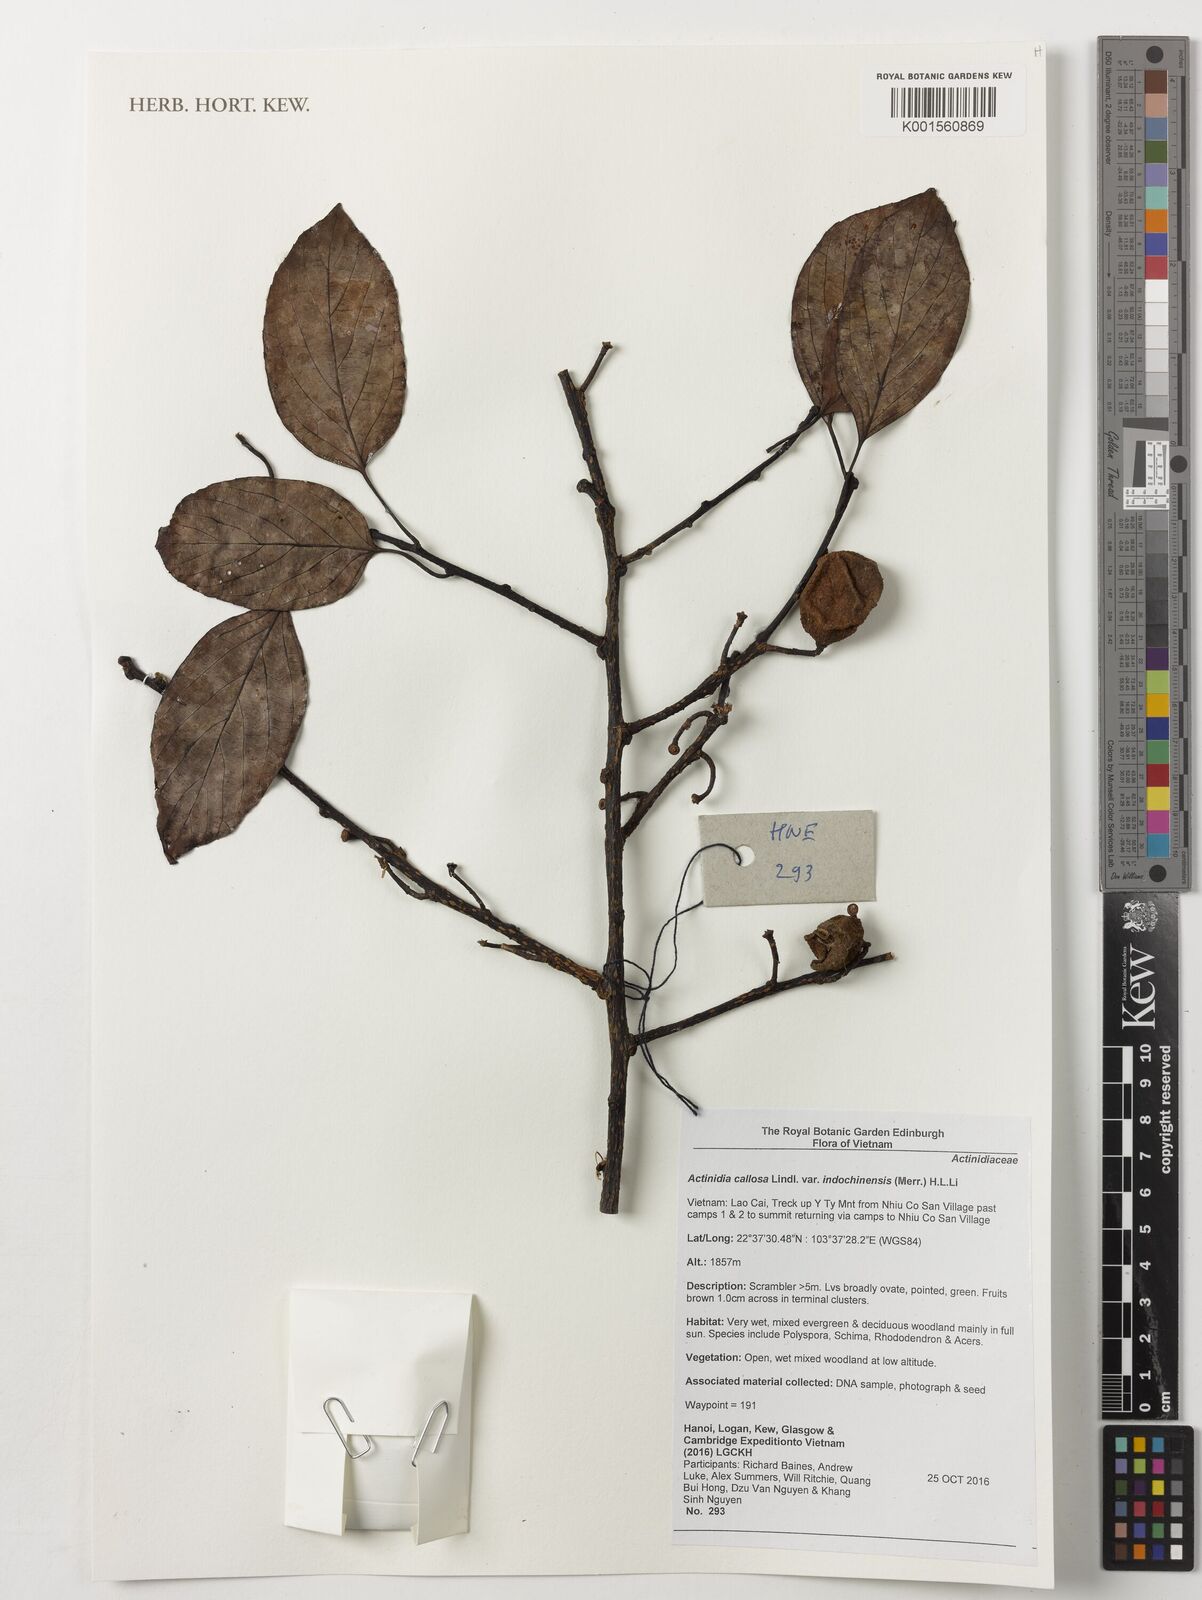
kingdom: Plantae
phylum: Tracheophyta
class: Magnoliopsida
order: Ericales
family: Actinidiaceae
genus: Actinidia
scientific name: Actinidia callosa
